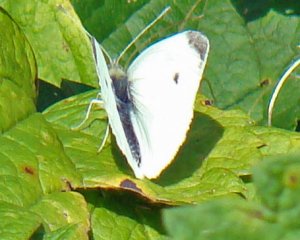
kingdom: Animalia
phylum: Arthropoda
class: Insecta
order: Lepidoptera
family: Pieridae
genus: Pieris
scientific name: Pieris rapae
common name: Cabbage White
